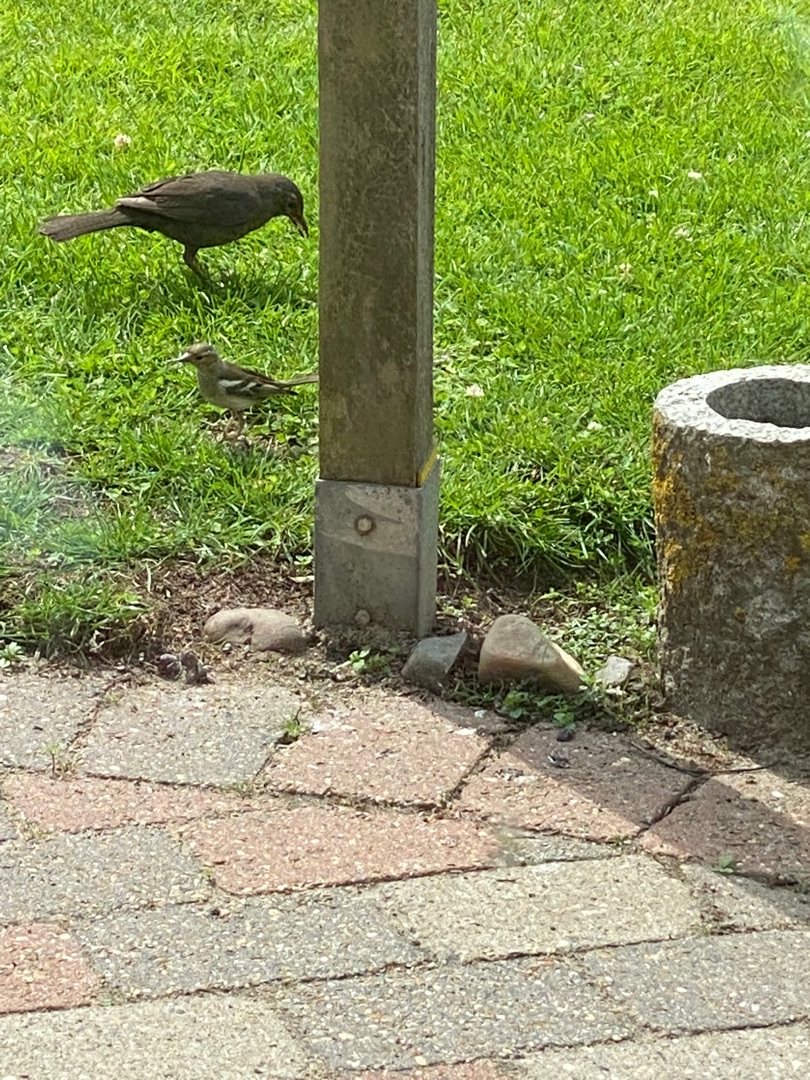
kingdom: Animalia
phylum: Chordata
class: Aves
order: Passeriformes
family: Fringillidae
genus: Fringilla
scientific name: Fringilla coelebs
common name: Bogfinke
